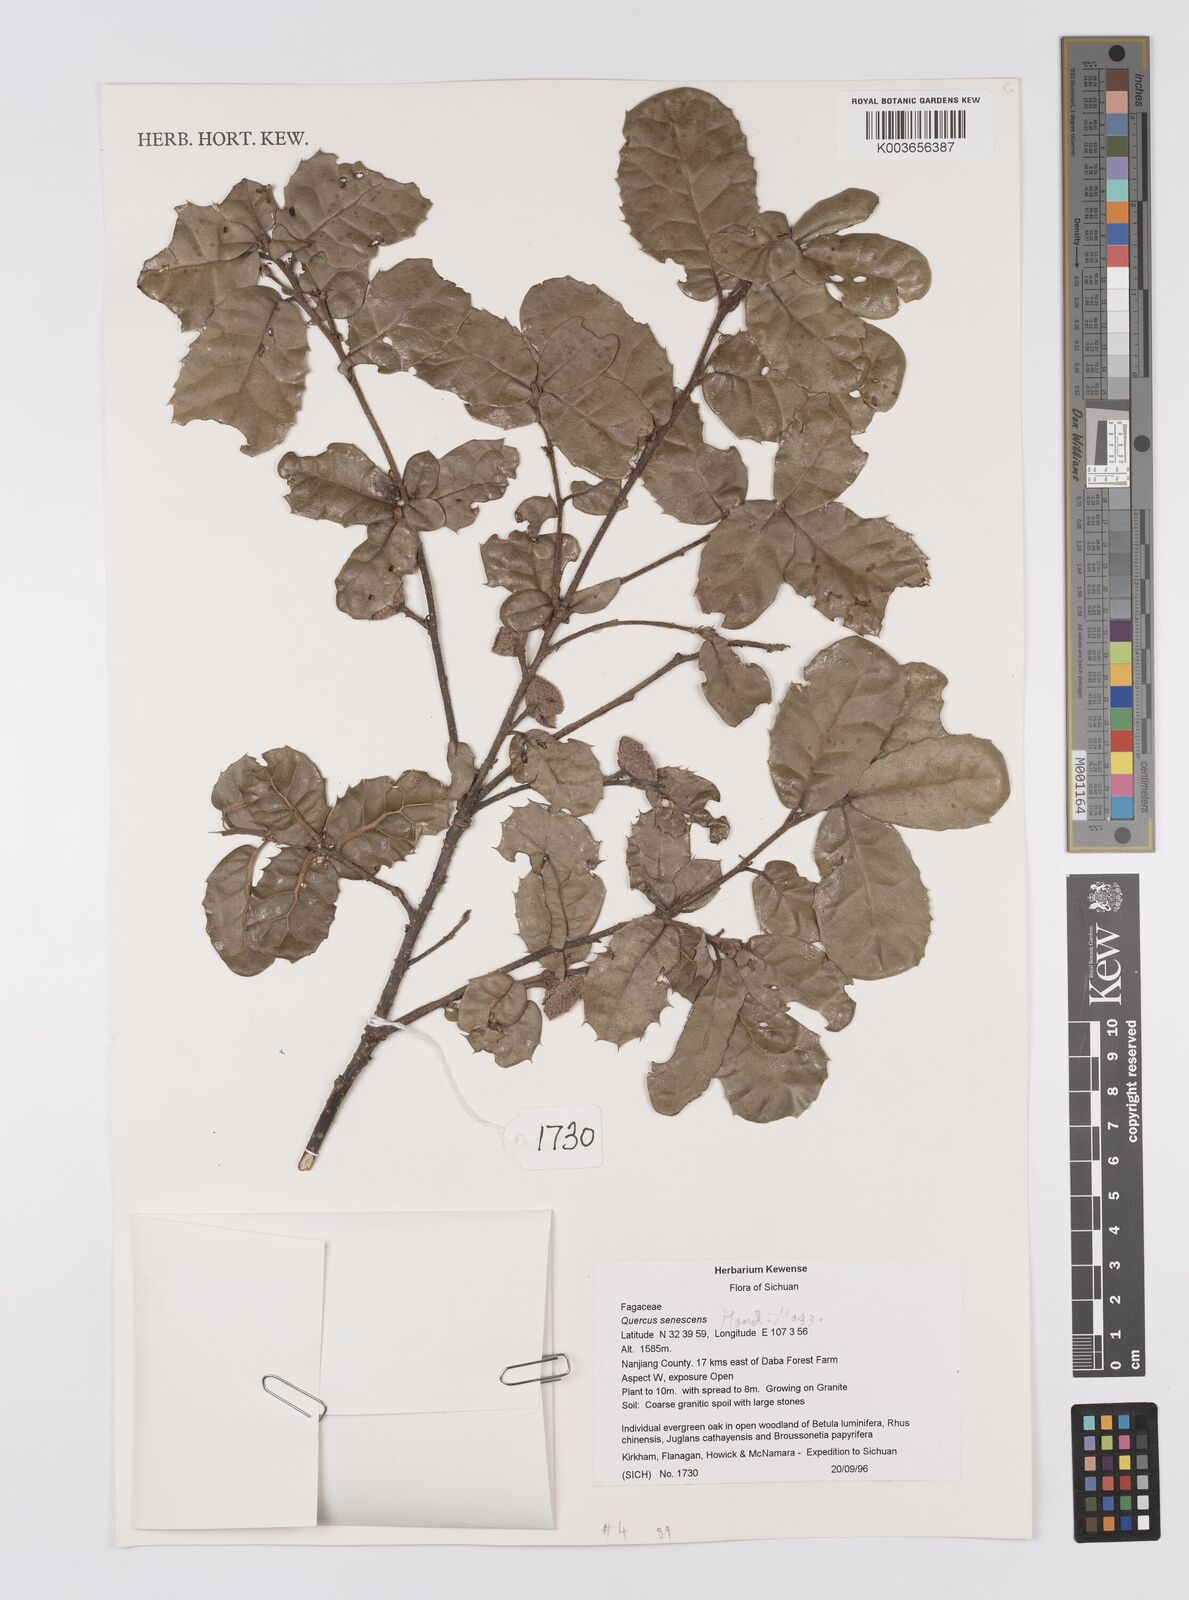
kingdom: Plantae
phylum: Tracheophyta
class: Magnoliopsida
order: Fagales
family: Fagaceae
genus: Quercus
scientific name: Quercus senescens
